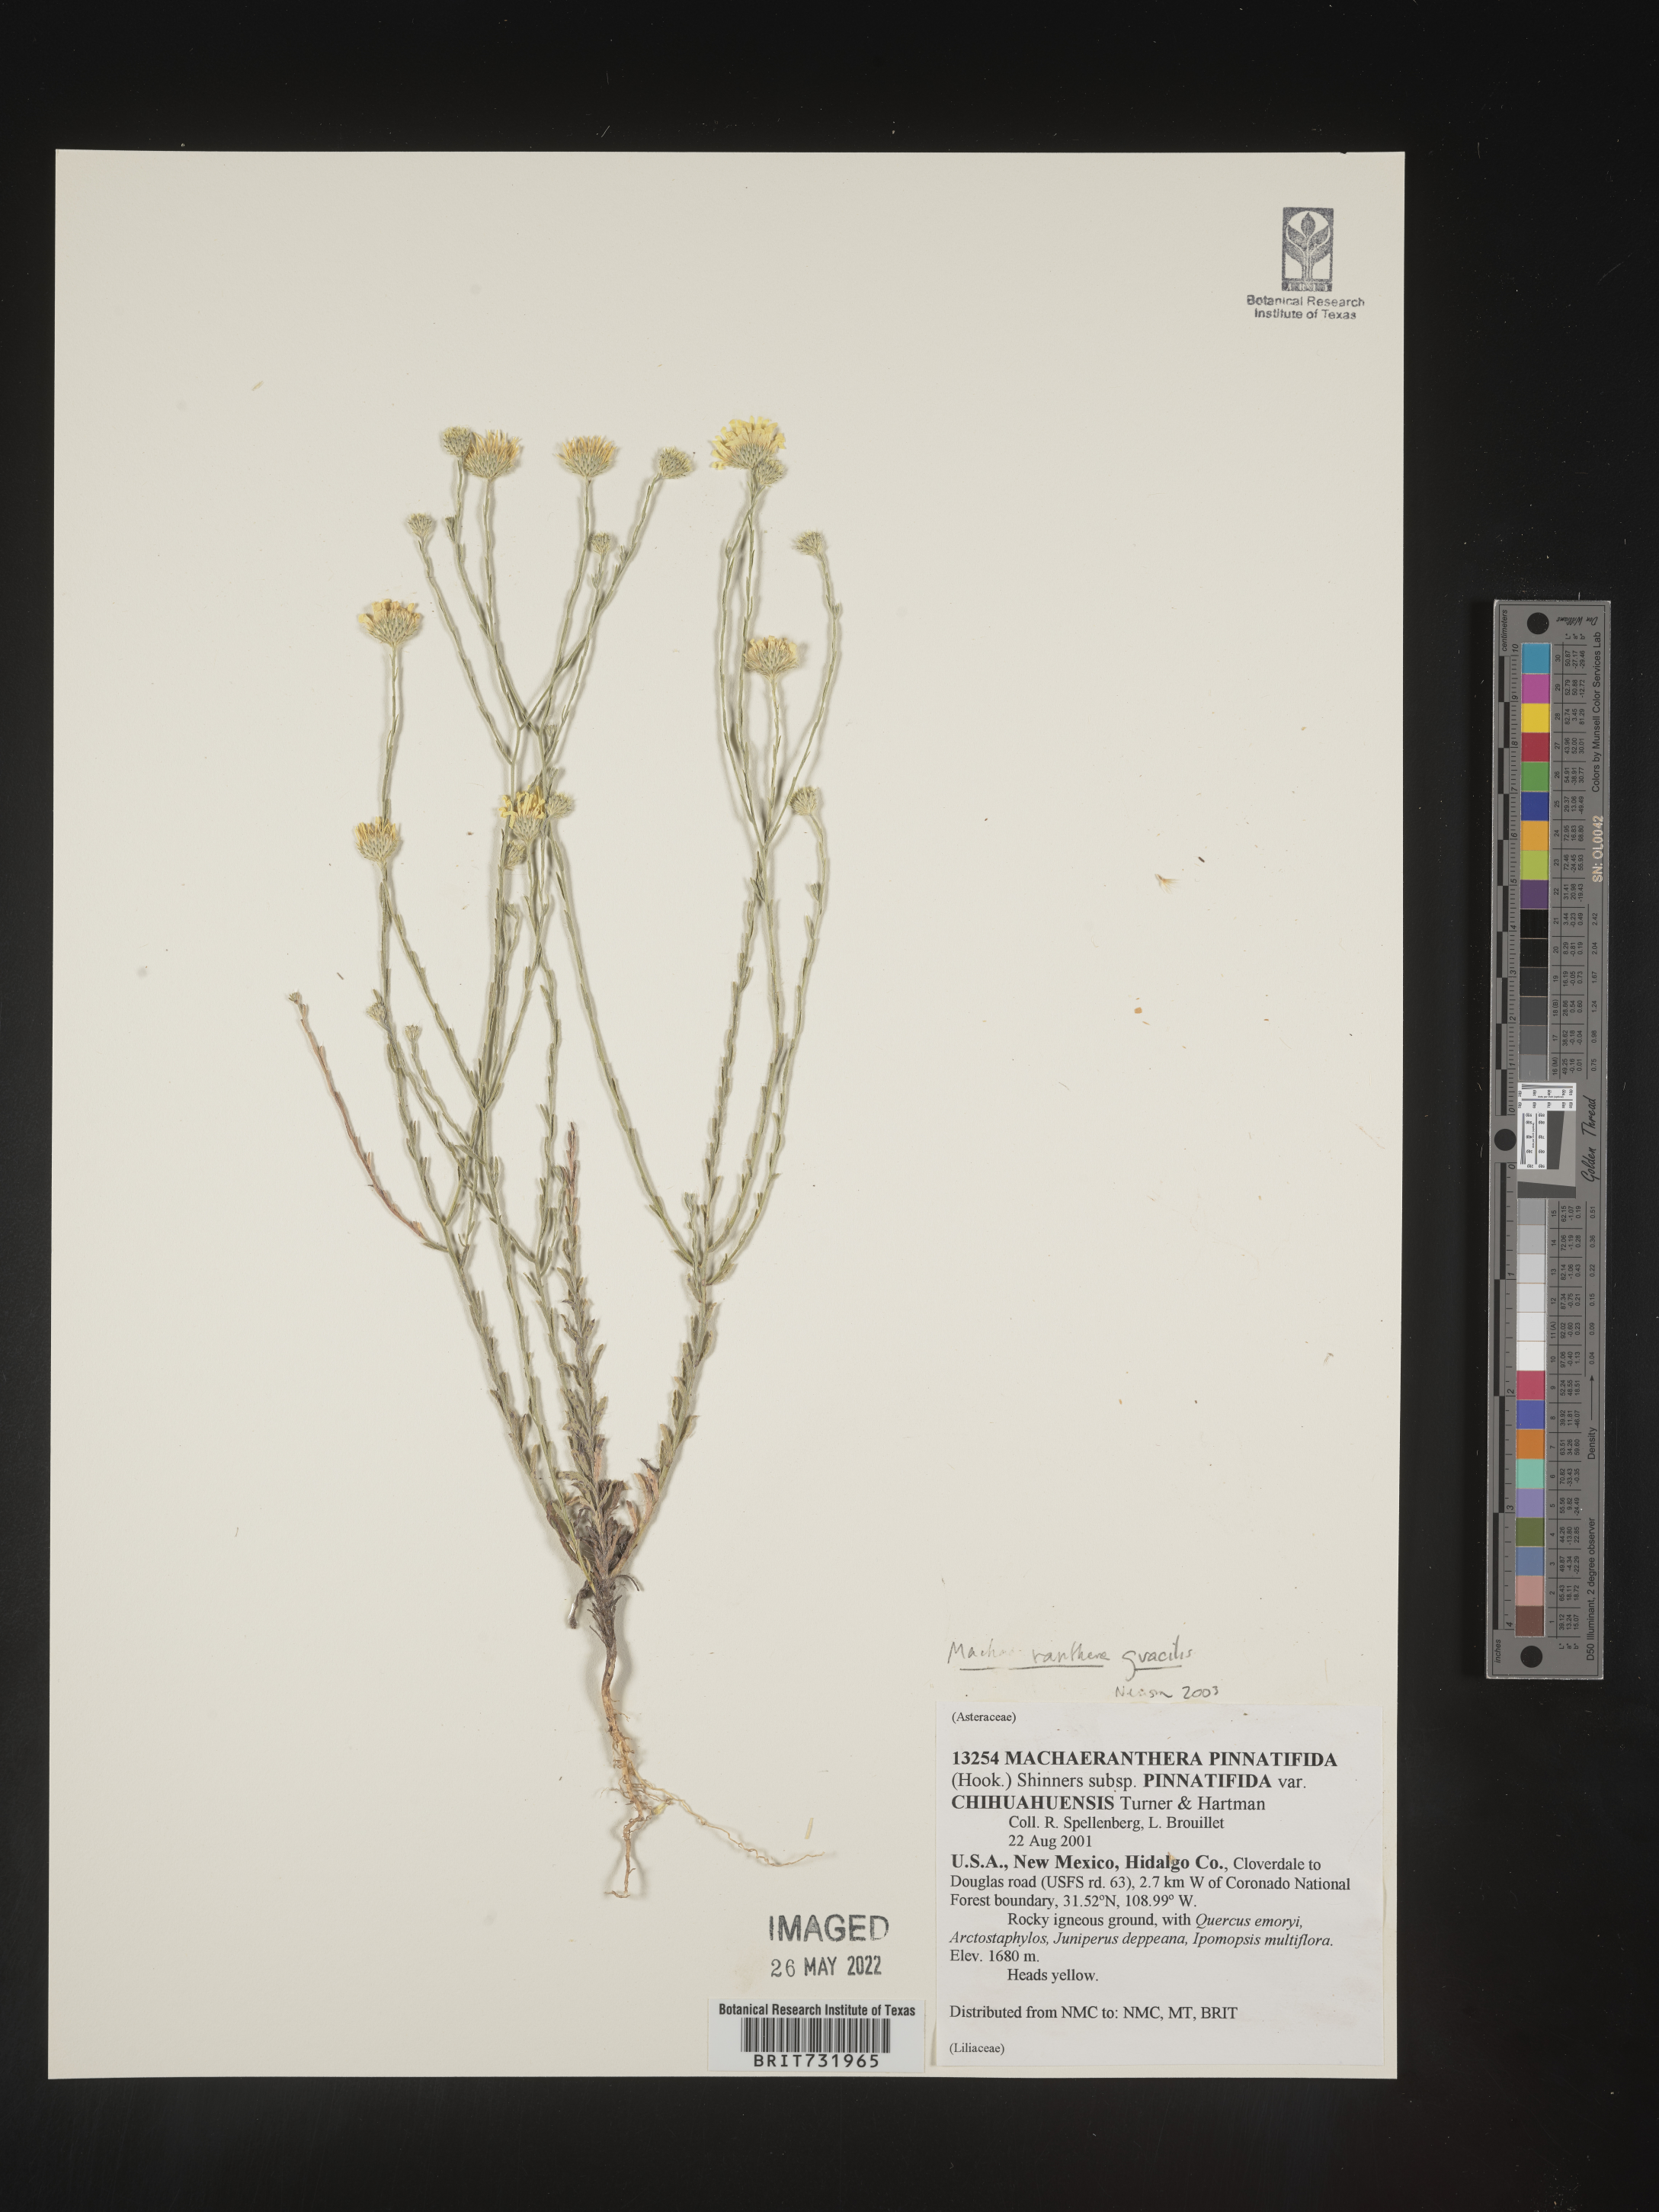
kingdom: Plantae
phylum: Tracheophyta
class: Magnoliopsida
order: Asterales
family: Asteraceae
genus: Xanthisma
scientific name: Xanthisma gracile
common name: Slender goldenweed
